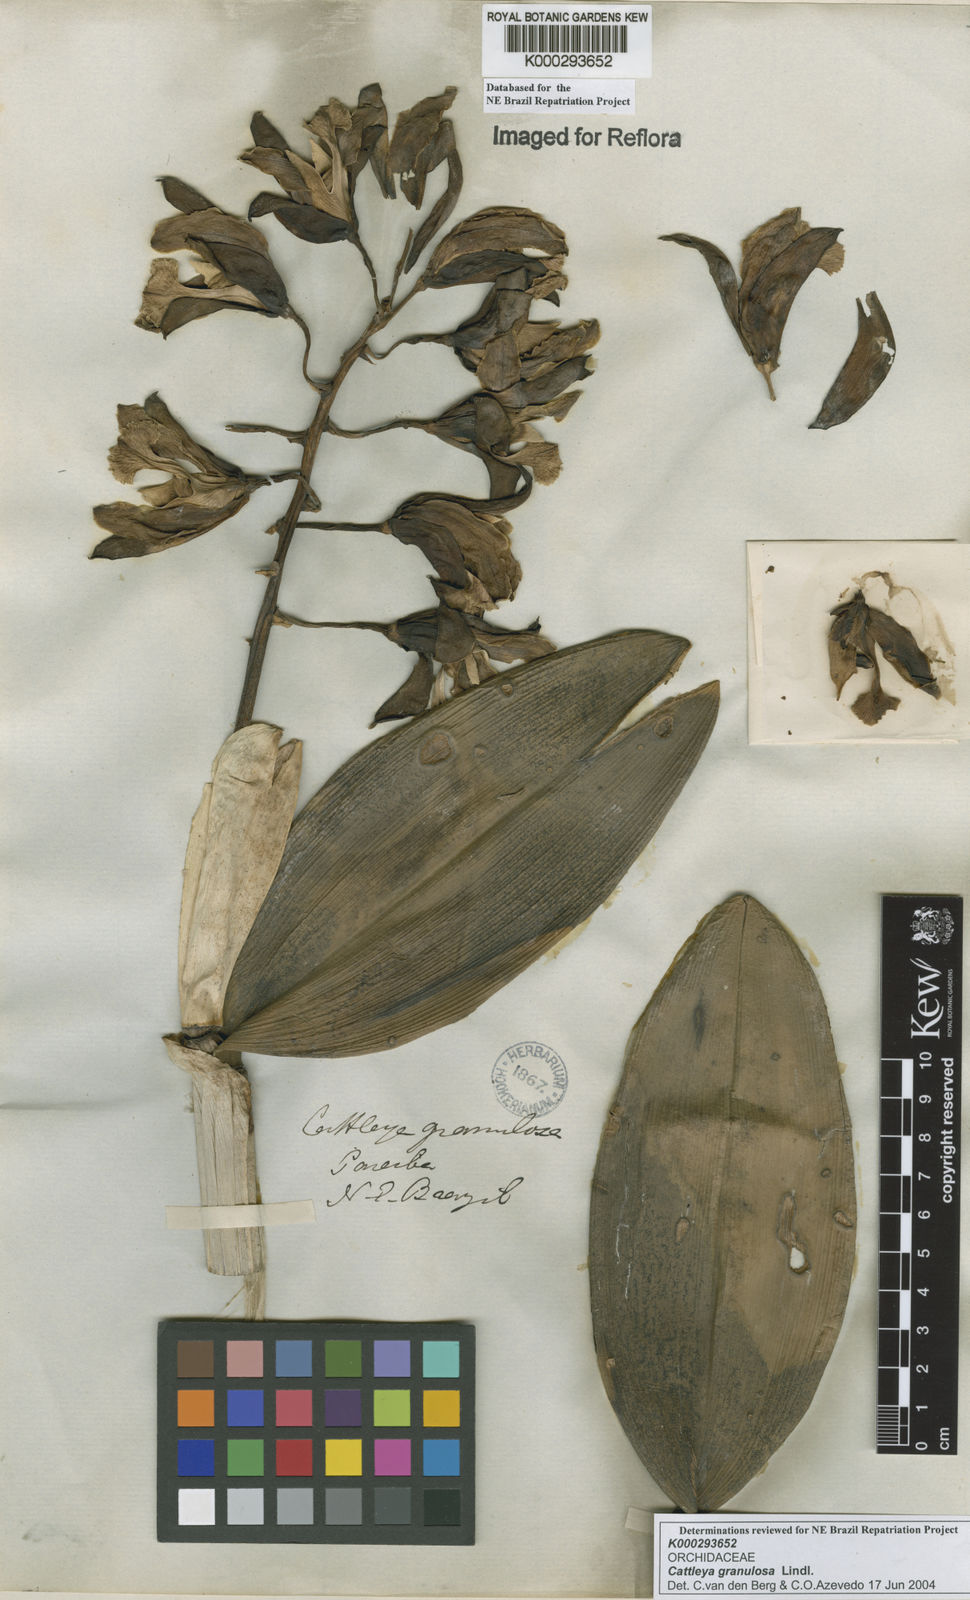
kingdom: Plantae
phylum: Tracheophyta
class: Liliopsida
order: Asparagales
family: Orchidaceae
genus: Cattleya
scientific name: Cattleya granulosa
